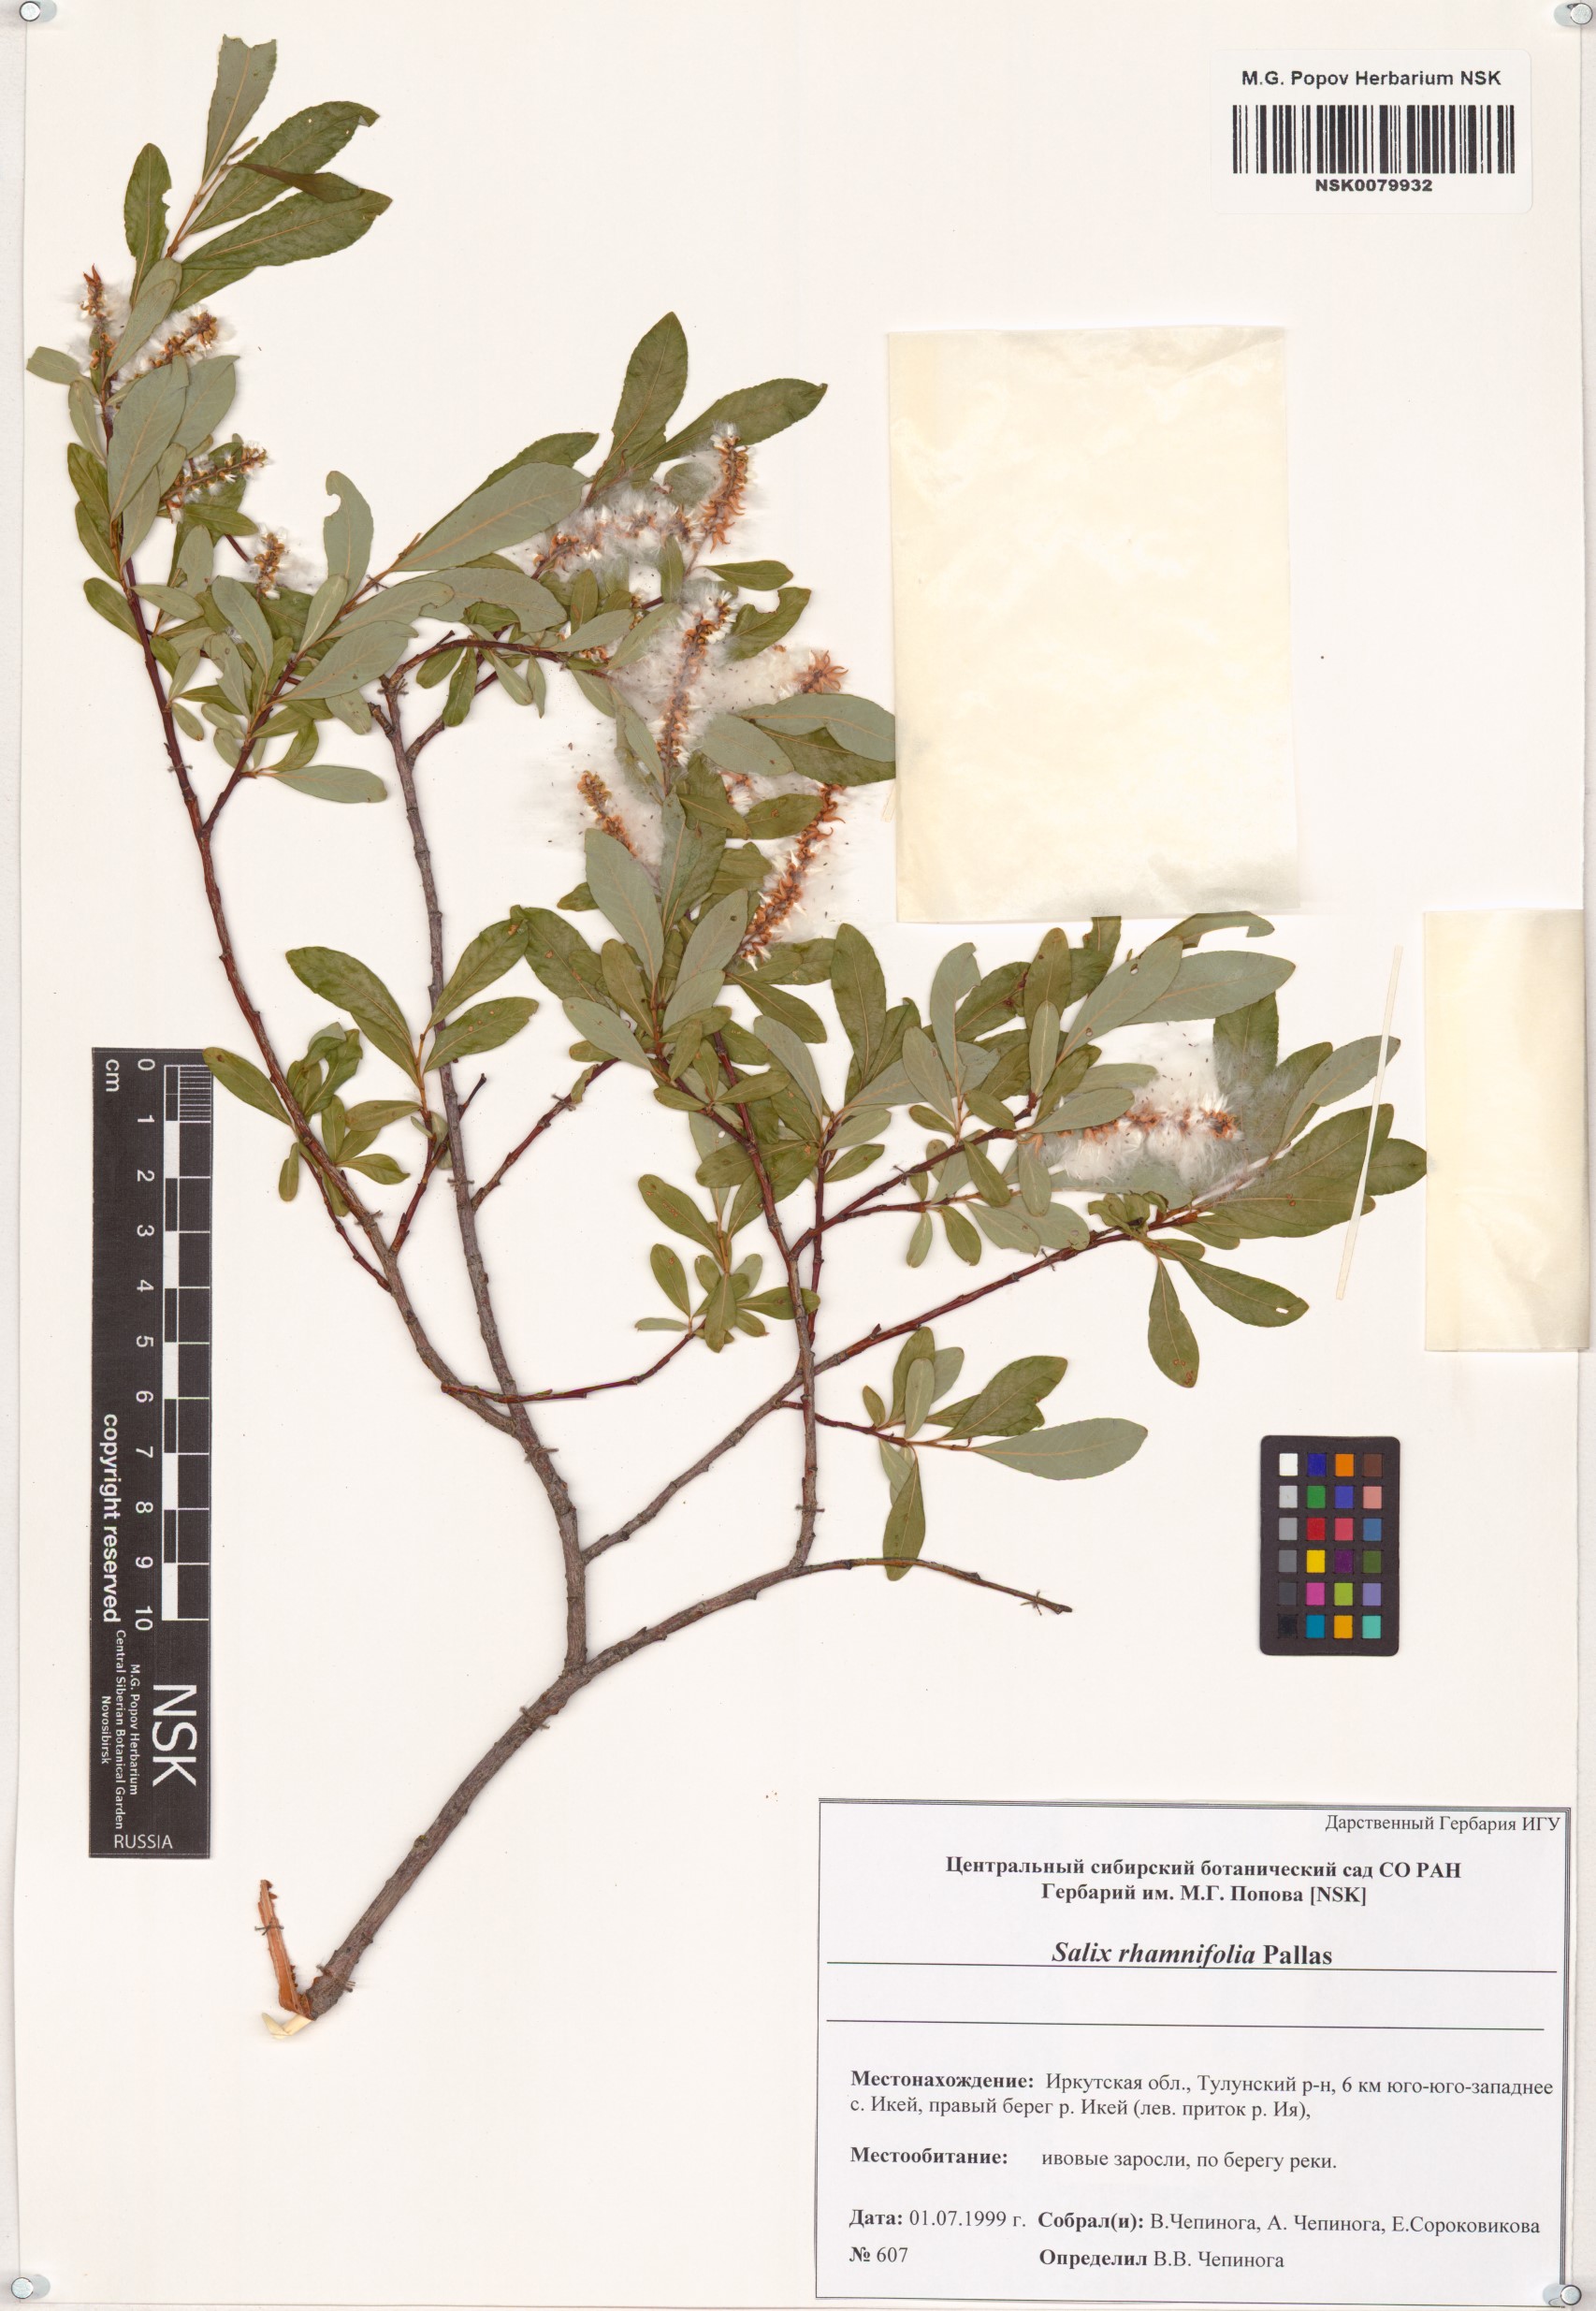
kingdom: Plantae
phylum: Tracheophyta
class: Magnoliopsida
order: Malpighiales
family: Salicaceae
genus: Salix
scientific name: Salix rhamnifolia
